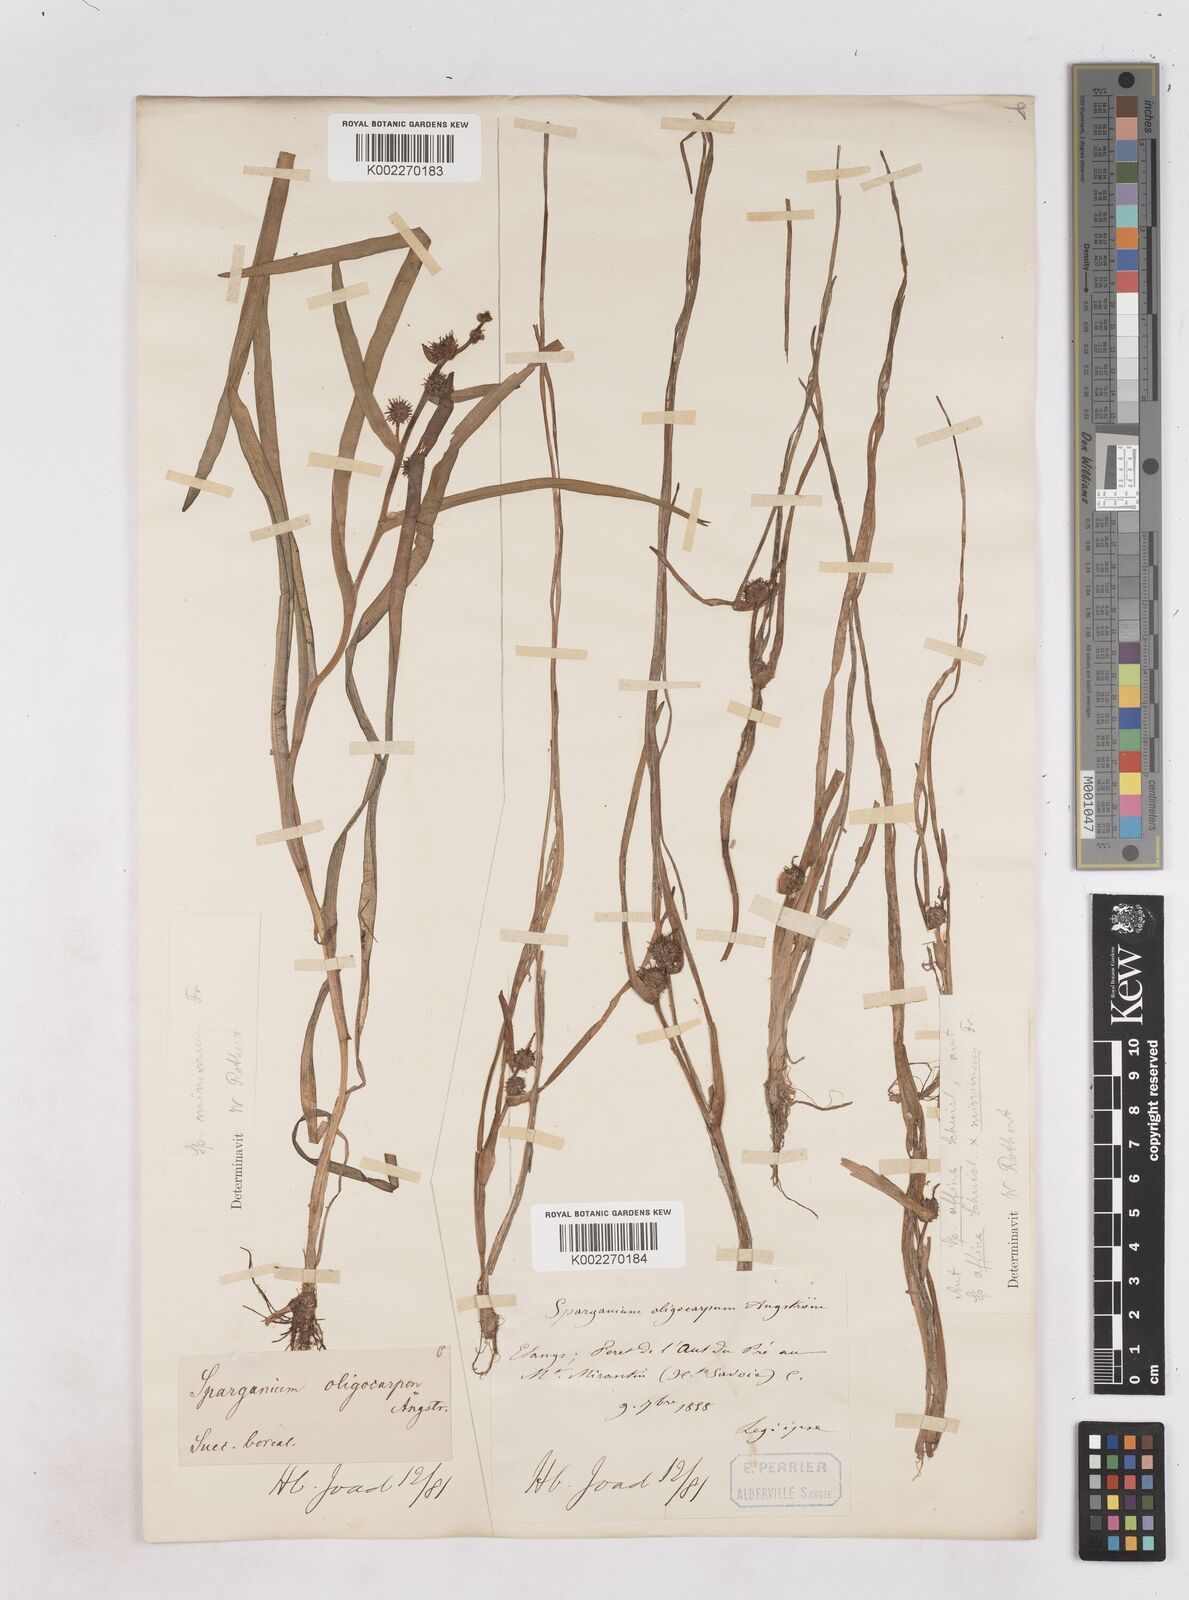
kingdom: Plantae
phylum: Tracheophyta
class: Liliopsida
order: Poales
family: Typhaceae
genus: Sparganium
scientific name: Sparganium oligocarpon
